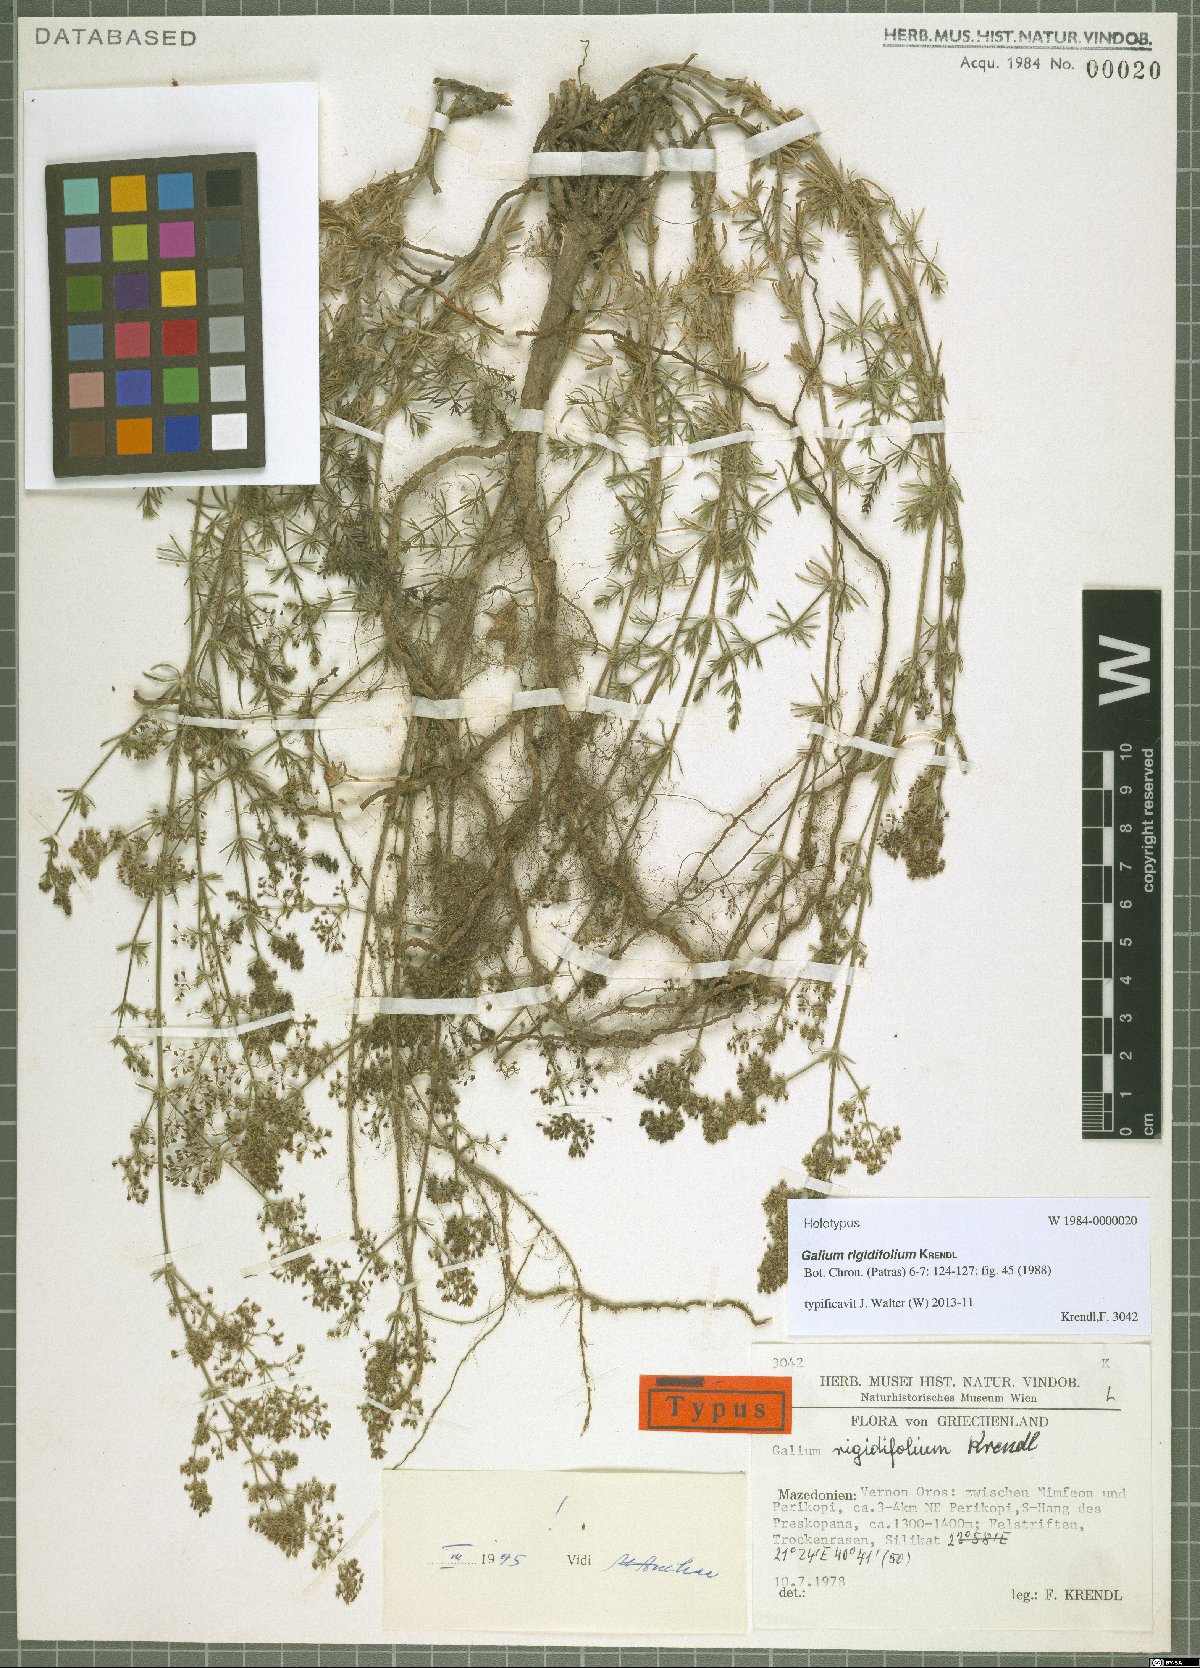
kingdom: Plantae
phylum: Tracheophyta
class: Magnoliopsida
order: Gentianales
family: Rubiaceae
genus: Galium
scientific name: Galium rigidifolium
